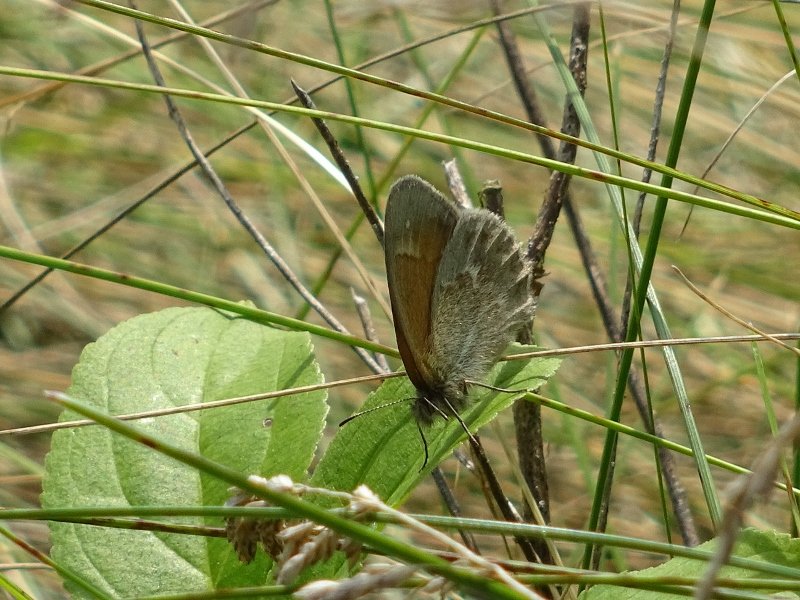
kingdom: Animalia
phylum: Arthropoda
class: Insecta
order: Lepidoptera
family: Nymphalidae
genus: Coenonympha
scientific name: Coenonympha tullia
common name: Large Heath
